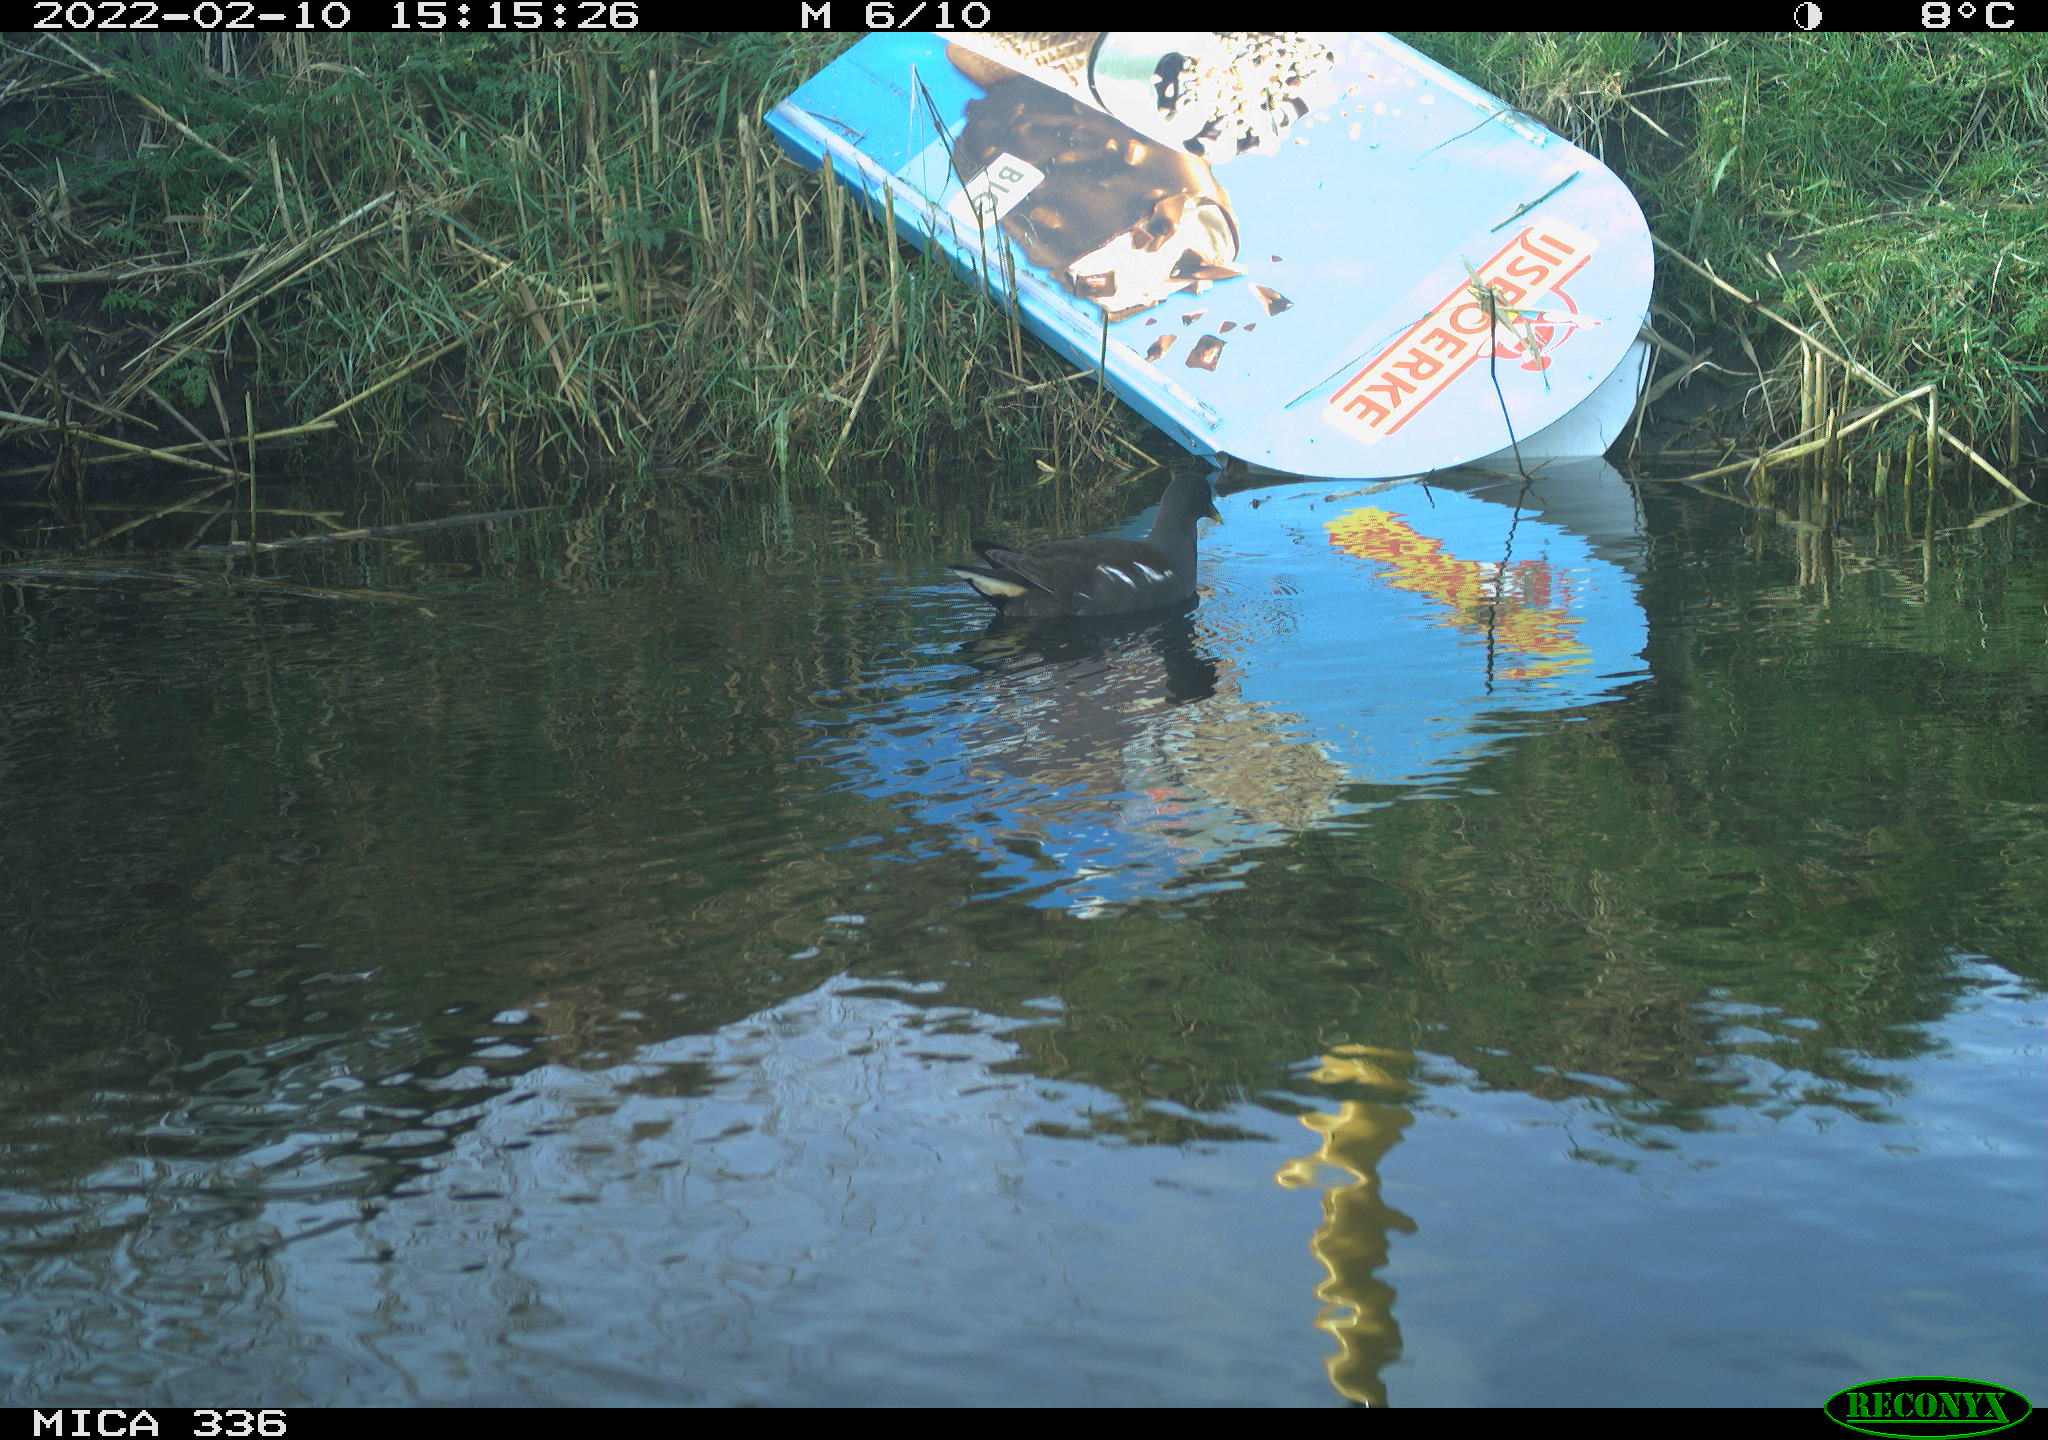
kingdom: Animalia
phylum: Chordata
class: Aves
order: Gruiformes
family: Rallidae
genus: Gallinula
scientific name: Gallinula chloropus
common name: Common moorhen
